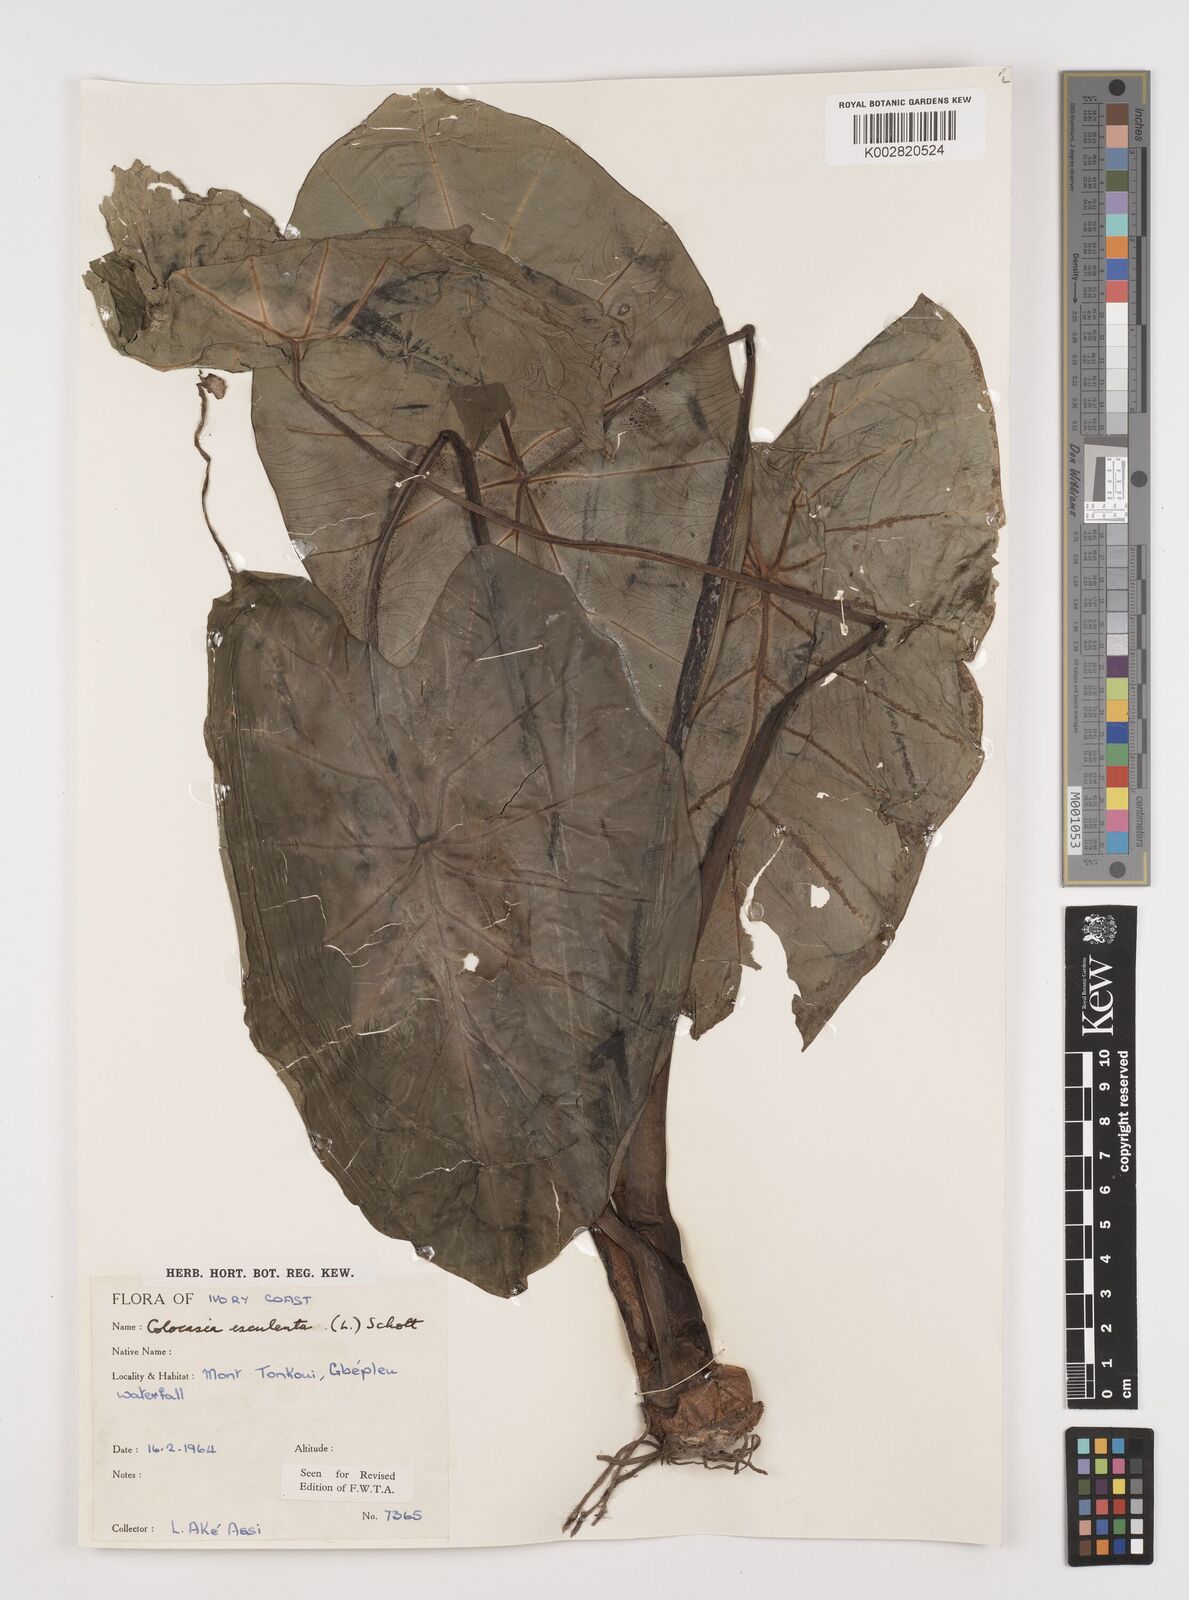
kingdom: Plantae
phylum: Tracheophyta
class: Liliopsida
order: Alismatales
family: Araceae
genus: Colocasia
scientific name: Colocasia esculenta
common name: Taro
